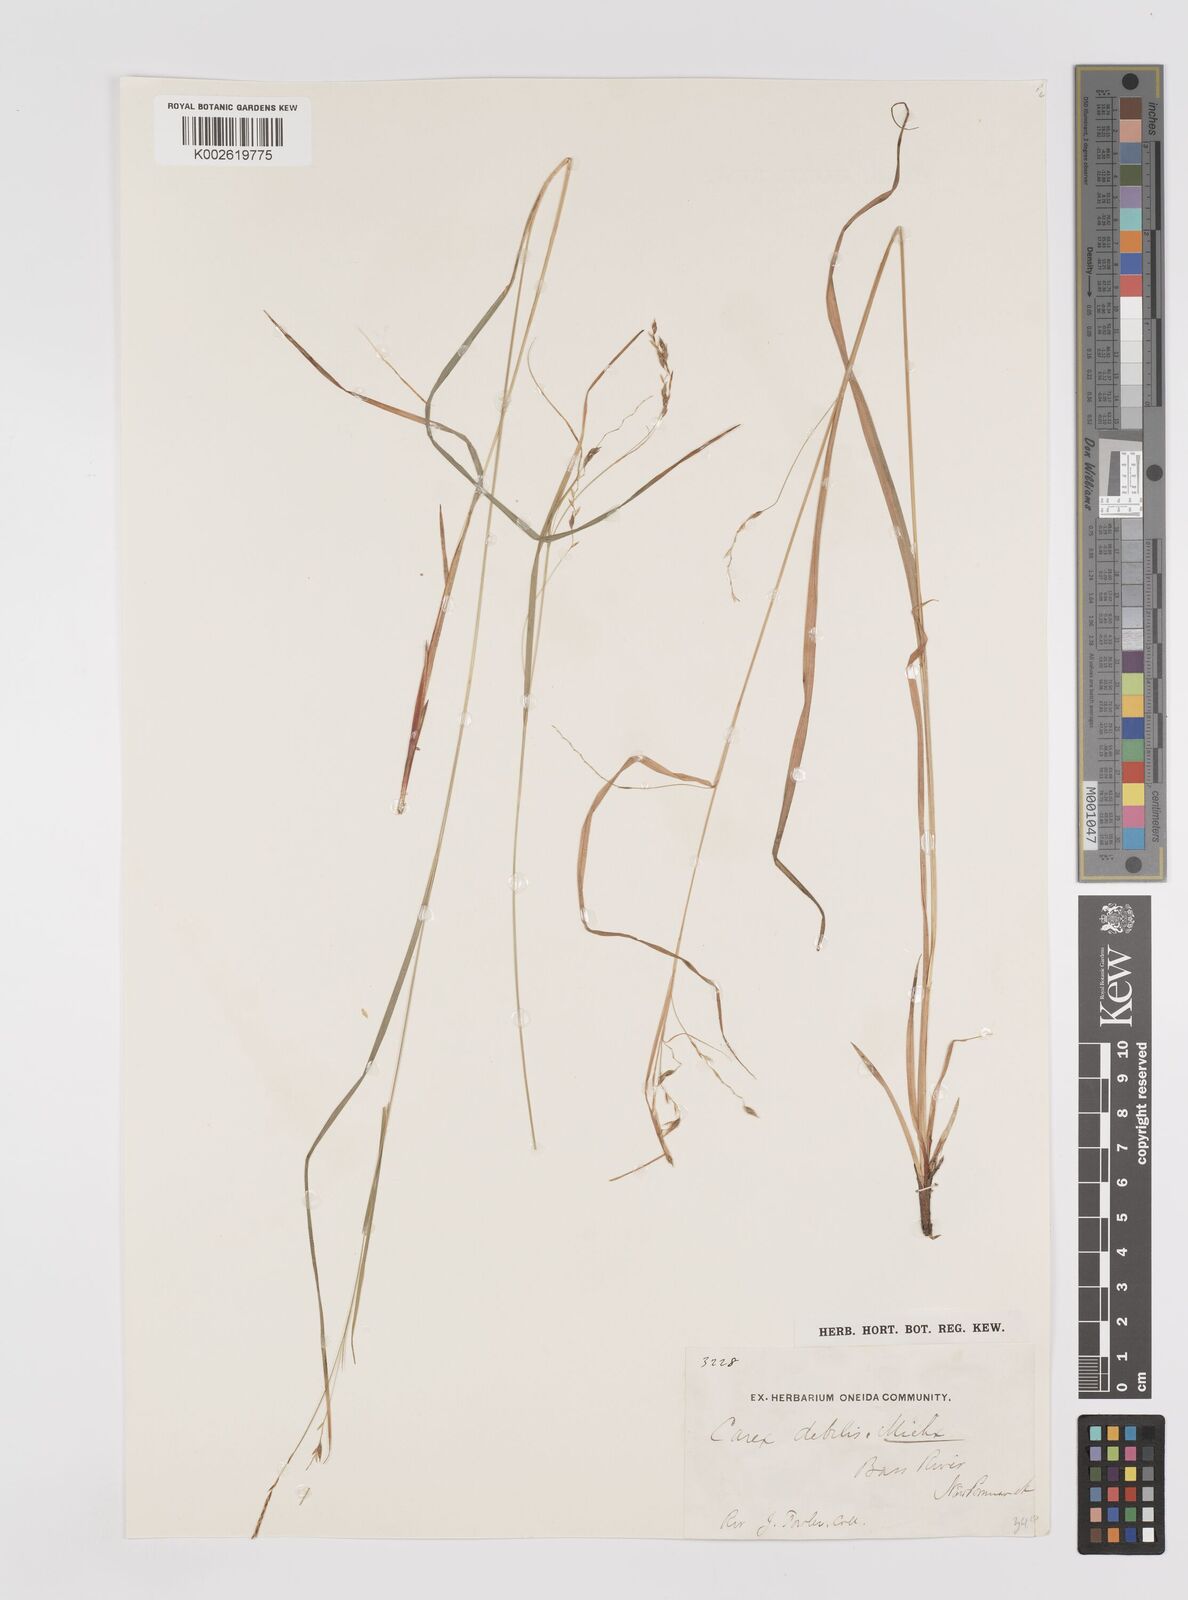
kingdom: Plantae
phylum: Tracheophyta
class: Liliopsida
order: Poales
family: Cyperaceae
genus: Carex
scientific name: Carex debilis
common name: White-edge sedge
